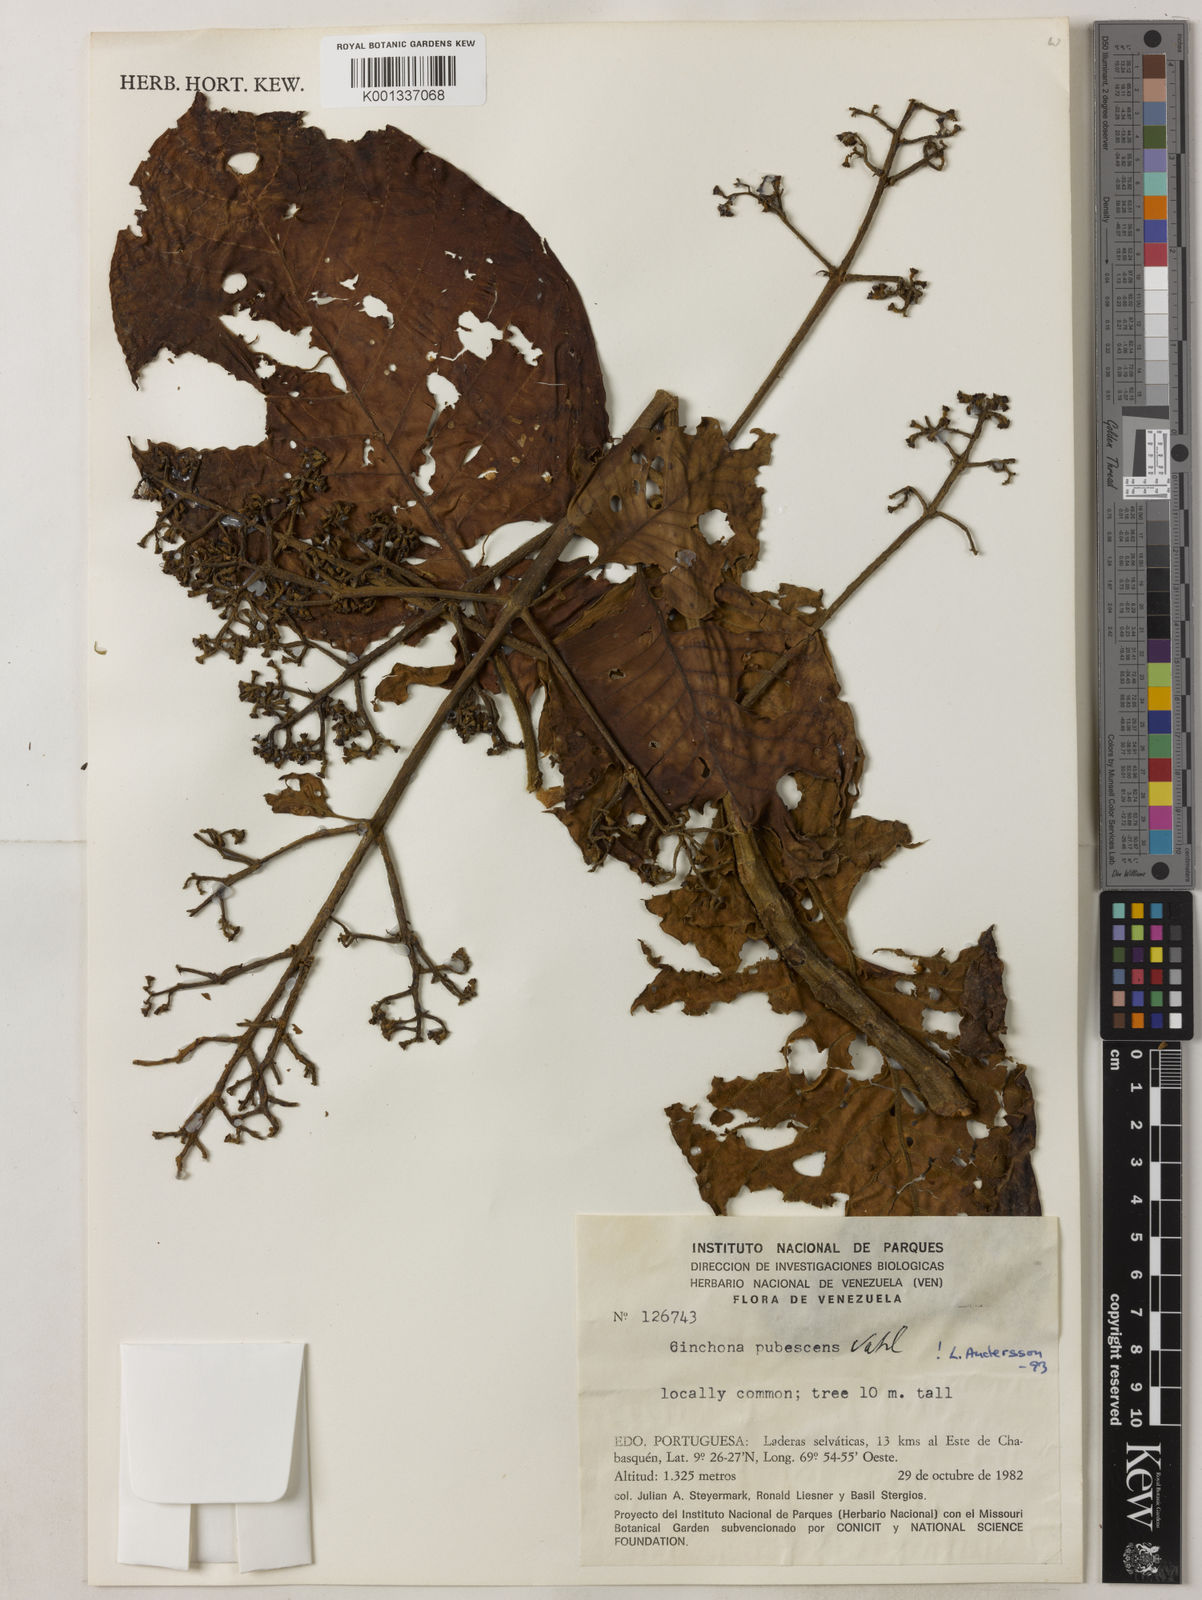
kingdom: Plantae
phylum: Tracheophyta
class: Magnoliopsida
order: Gentianales
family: Rubiaceae
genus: Cinchona
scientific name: Cinchona pubescens
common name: Quinine
